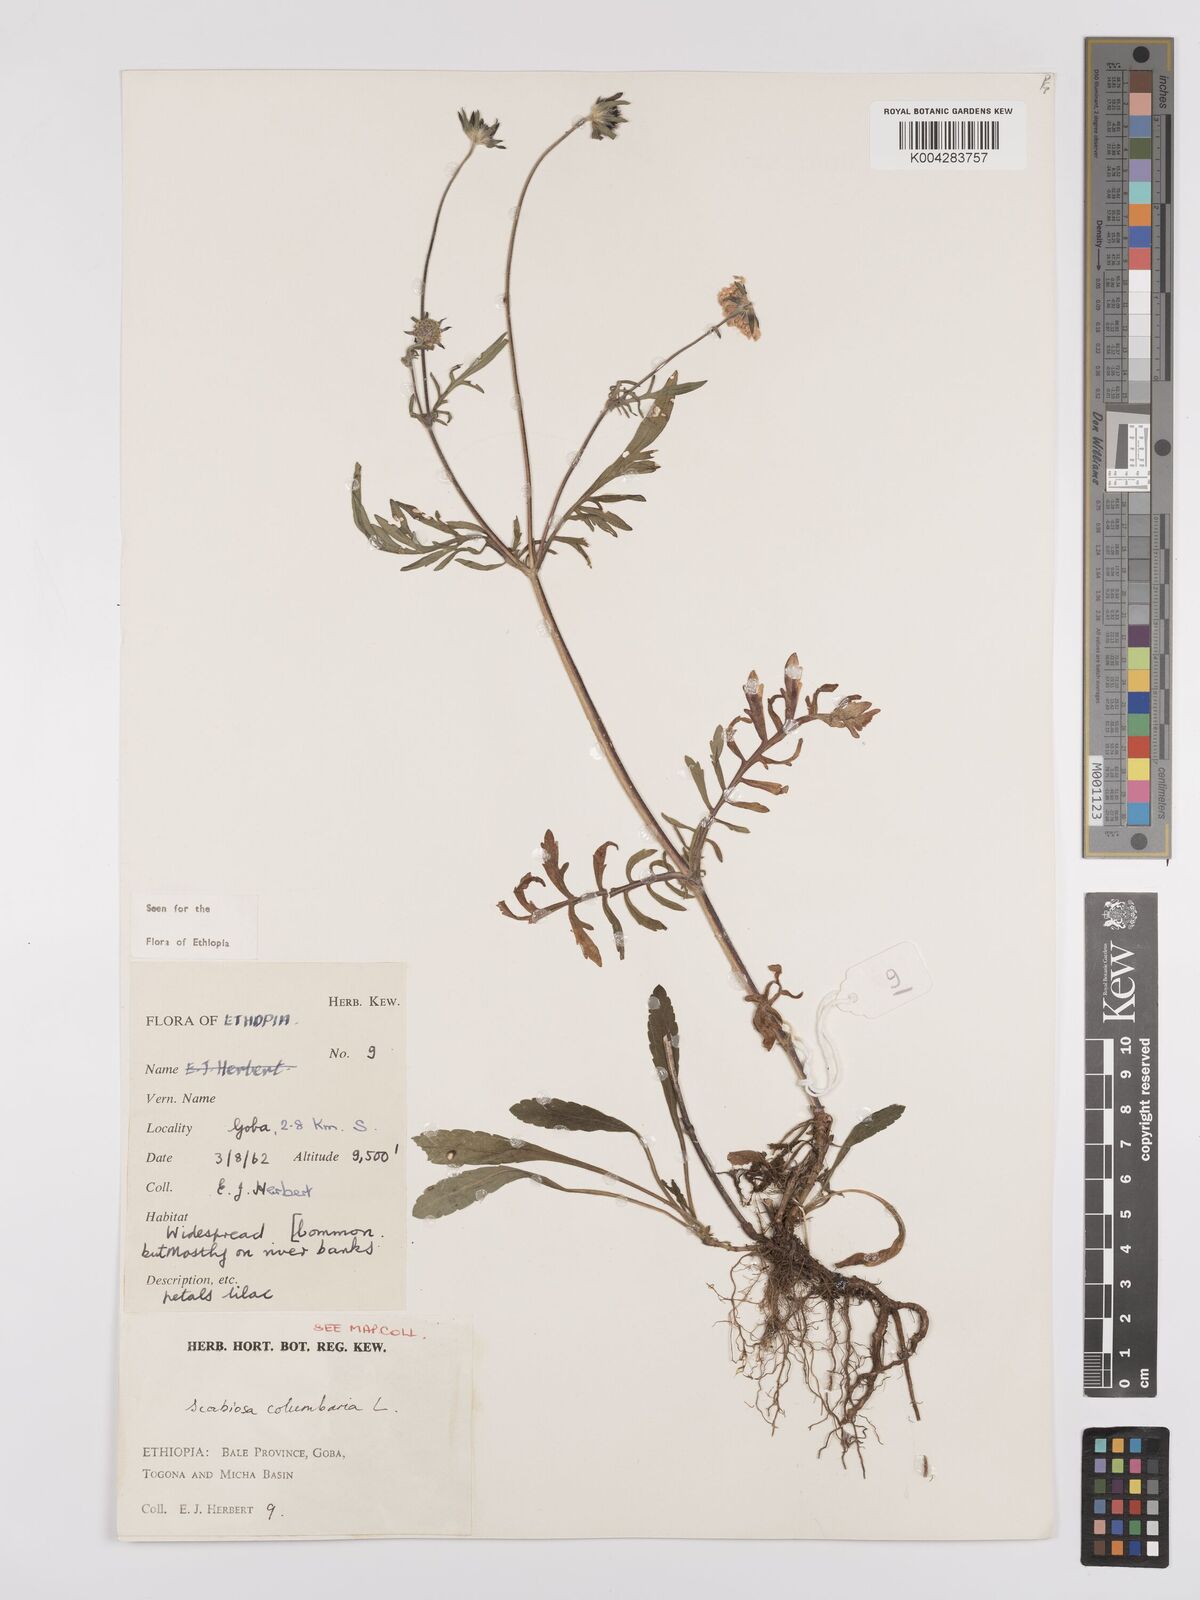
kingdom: Plantae
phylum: Tracheophyta
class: Magnoliopsida
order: Dipsacales
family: Caprifoliaceae
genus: Scabiosa
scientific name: Scabiosa columbaria
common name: Small scabious
